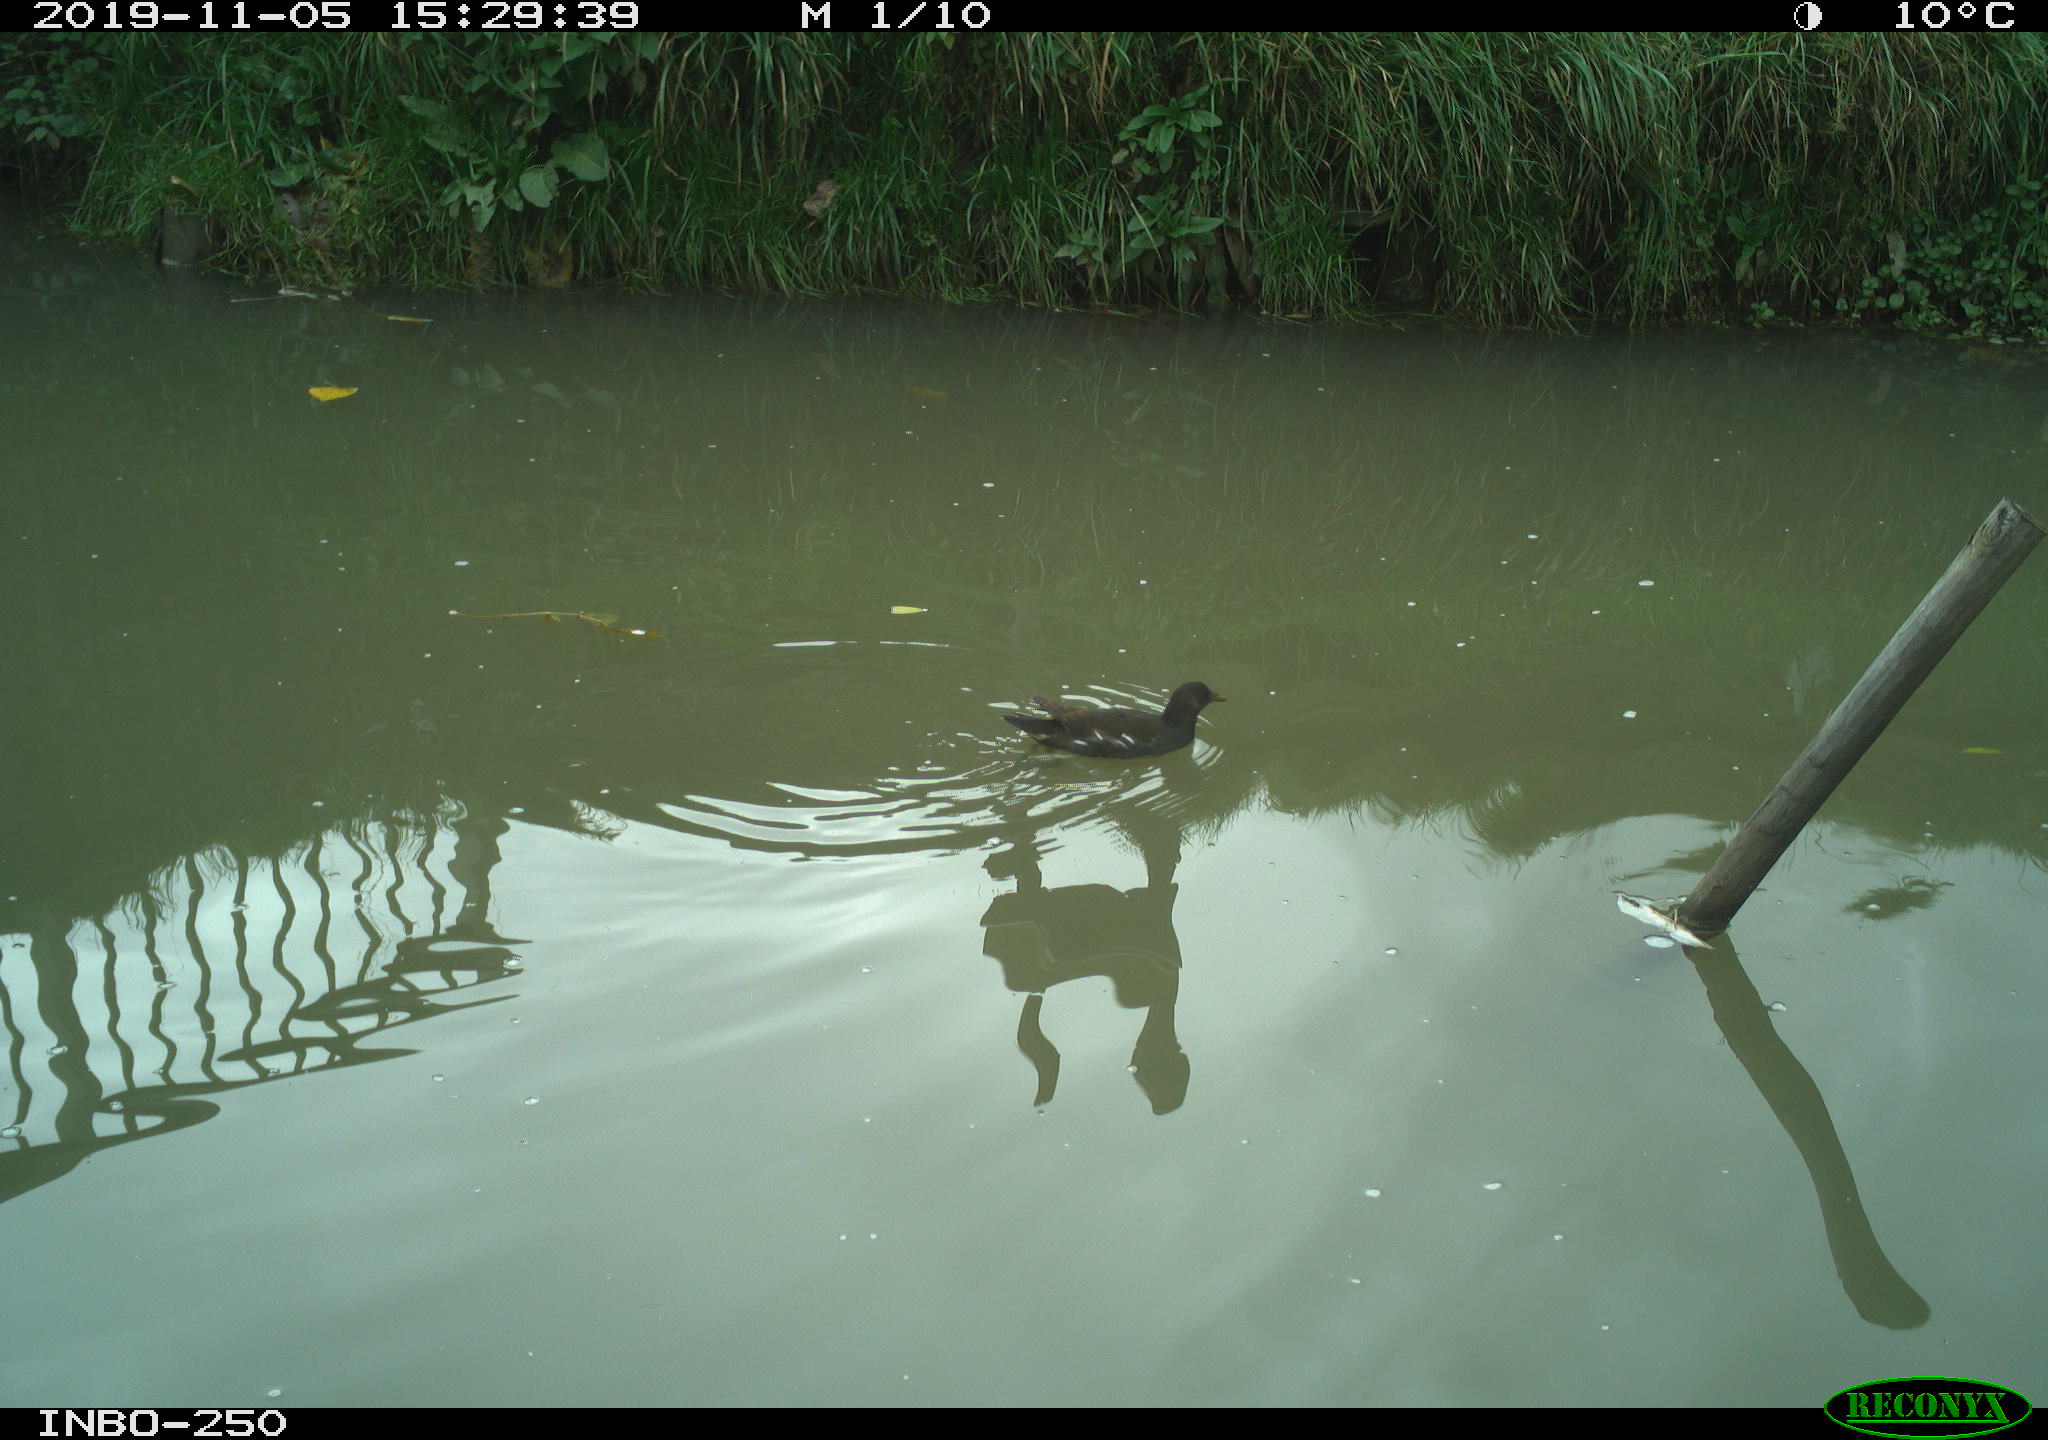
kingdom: Animalia
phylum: Chordata
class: Aves
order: Gruiformes
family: Rallidae
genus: Gallinula
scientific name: Gallinula chloropus
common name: Common moorhen
